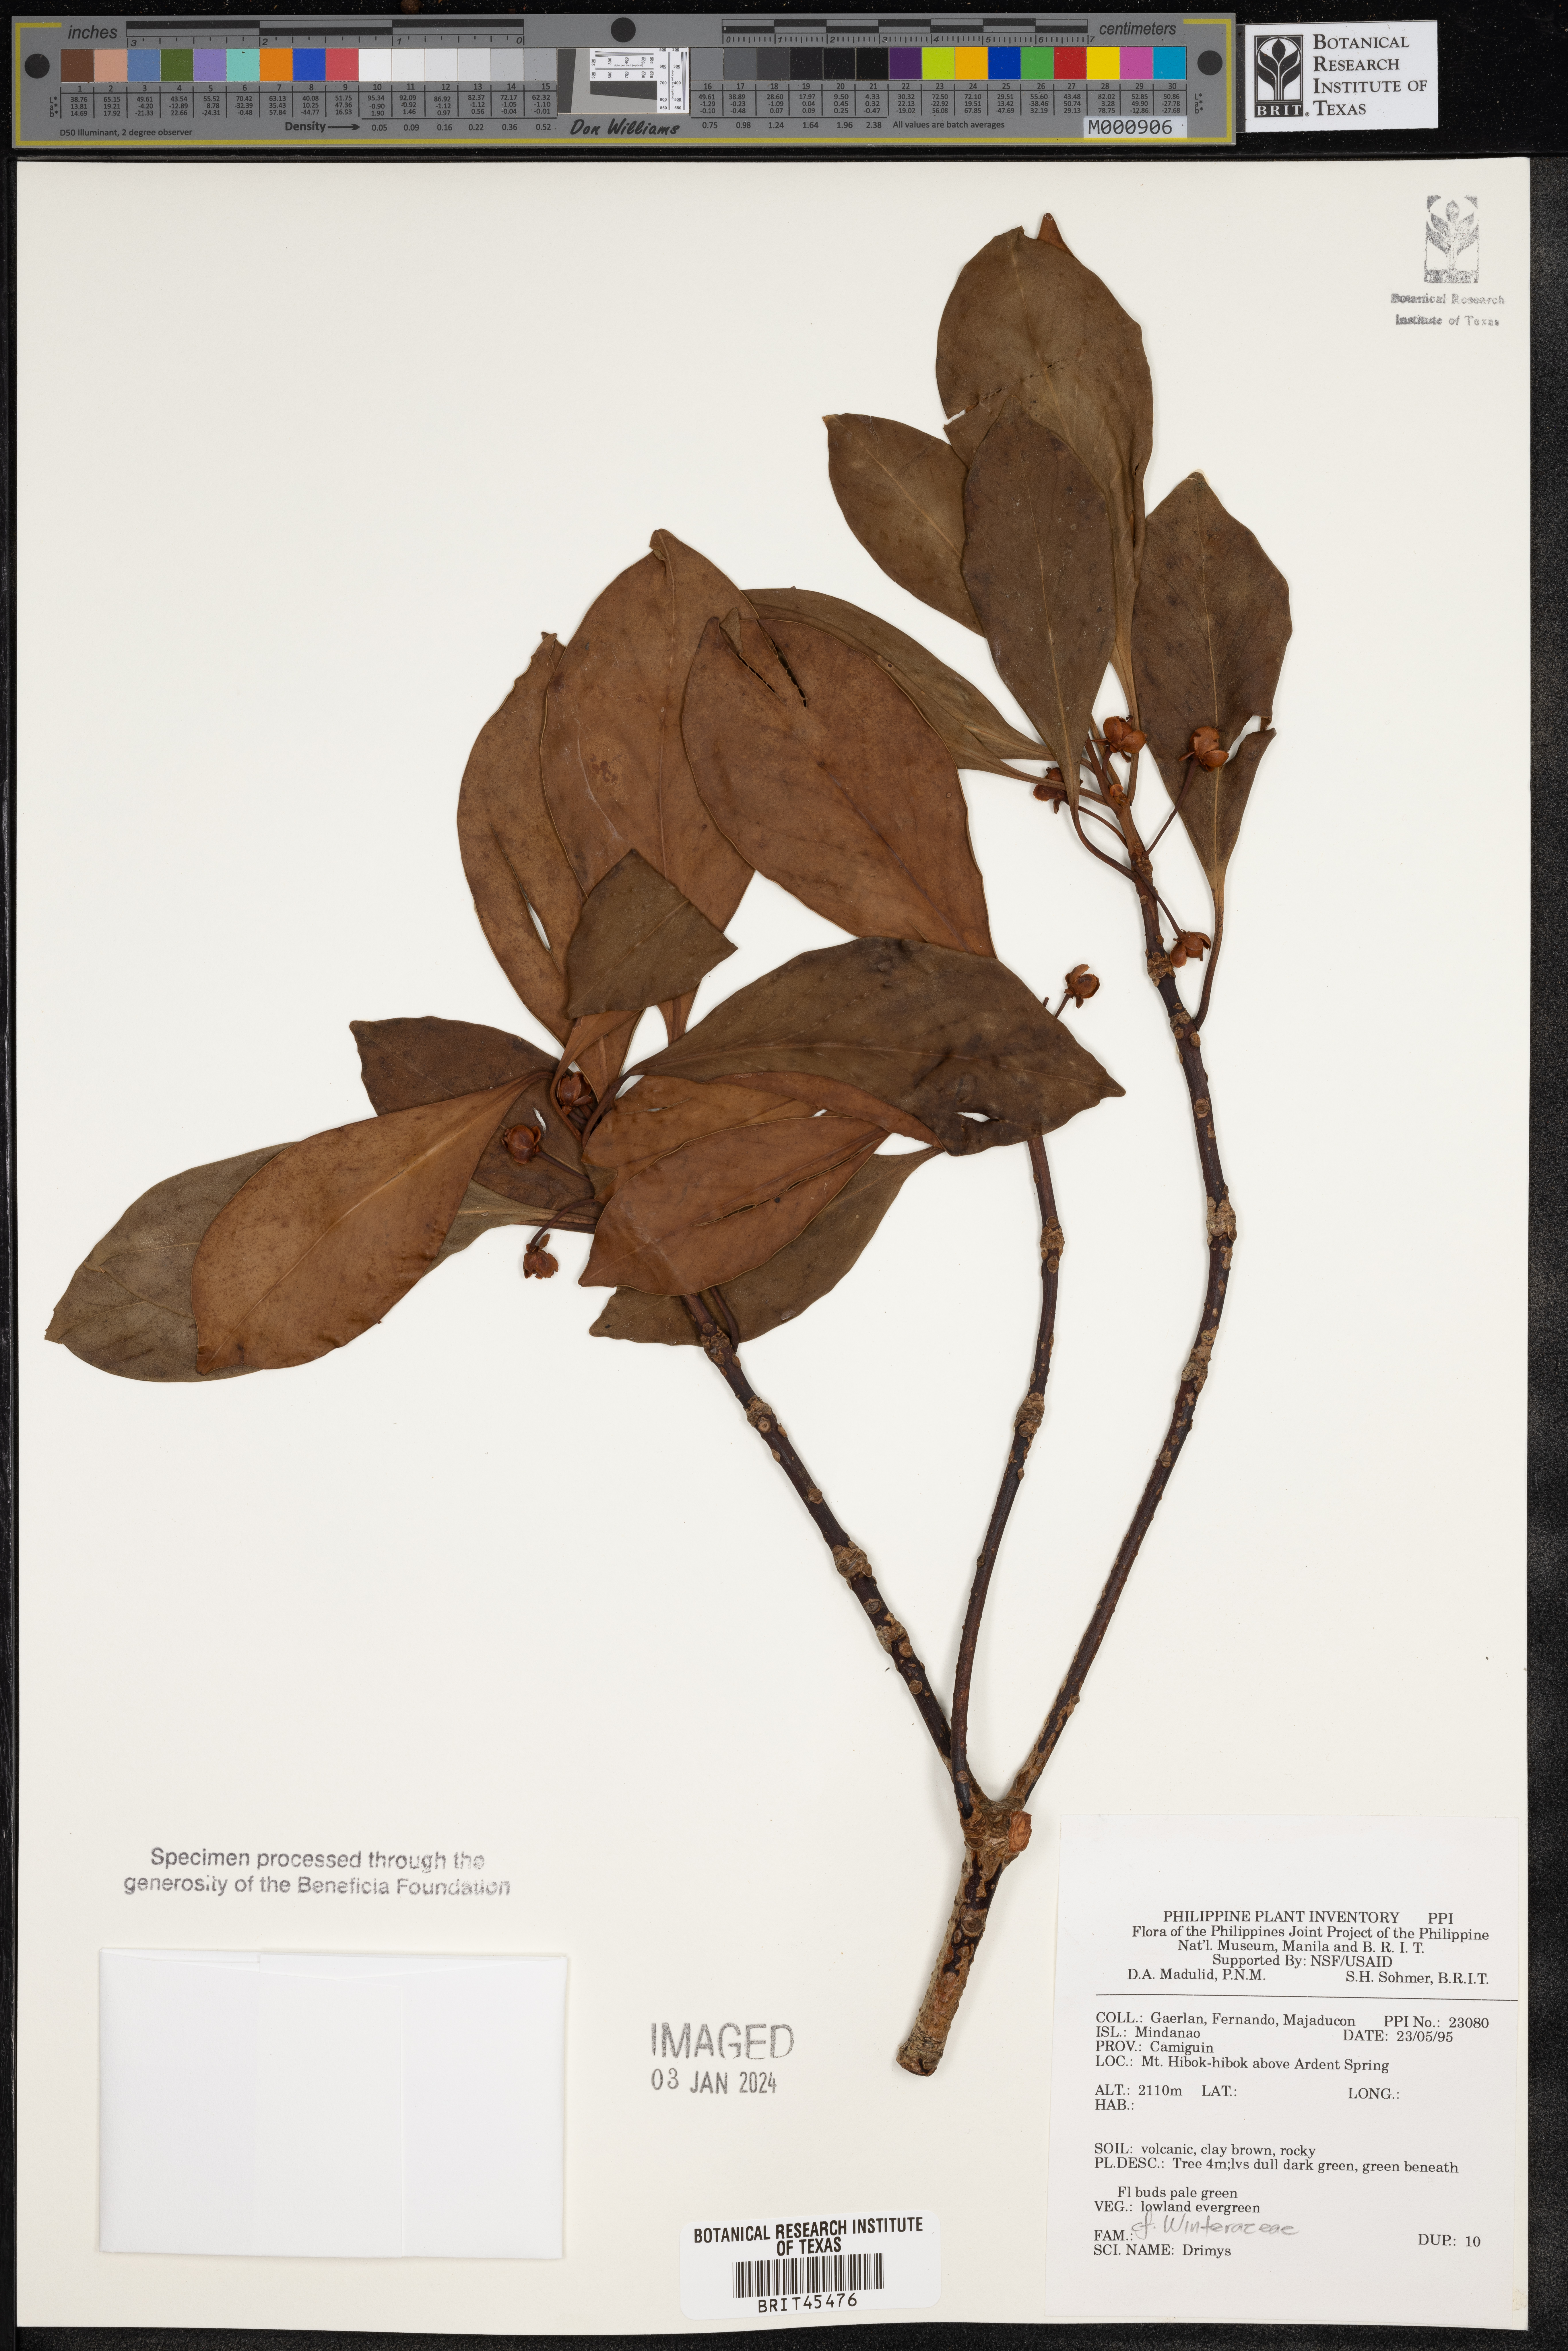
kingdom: Plantae
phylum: Tracheophyta
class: Magnoliopsida
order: Canellales
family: Winteraceae
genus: Drimys
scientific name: Drimys
